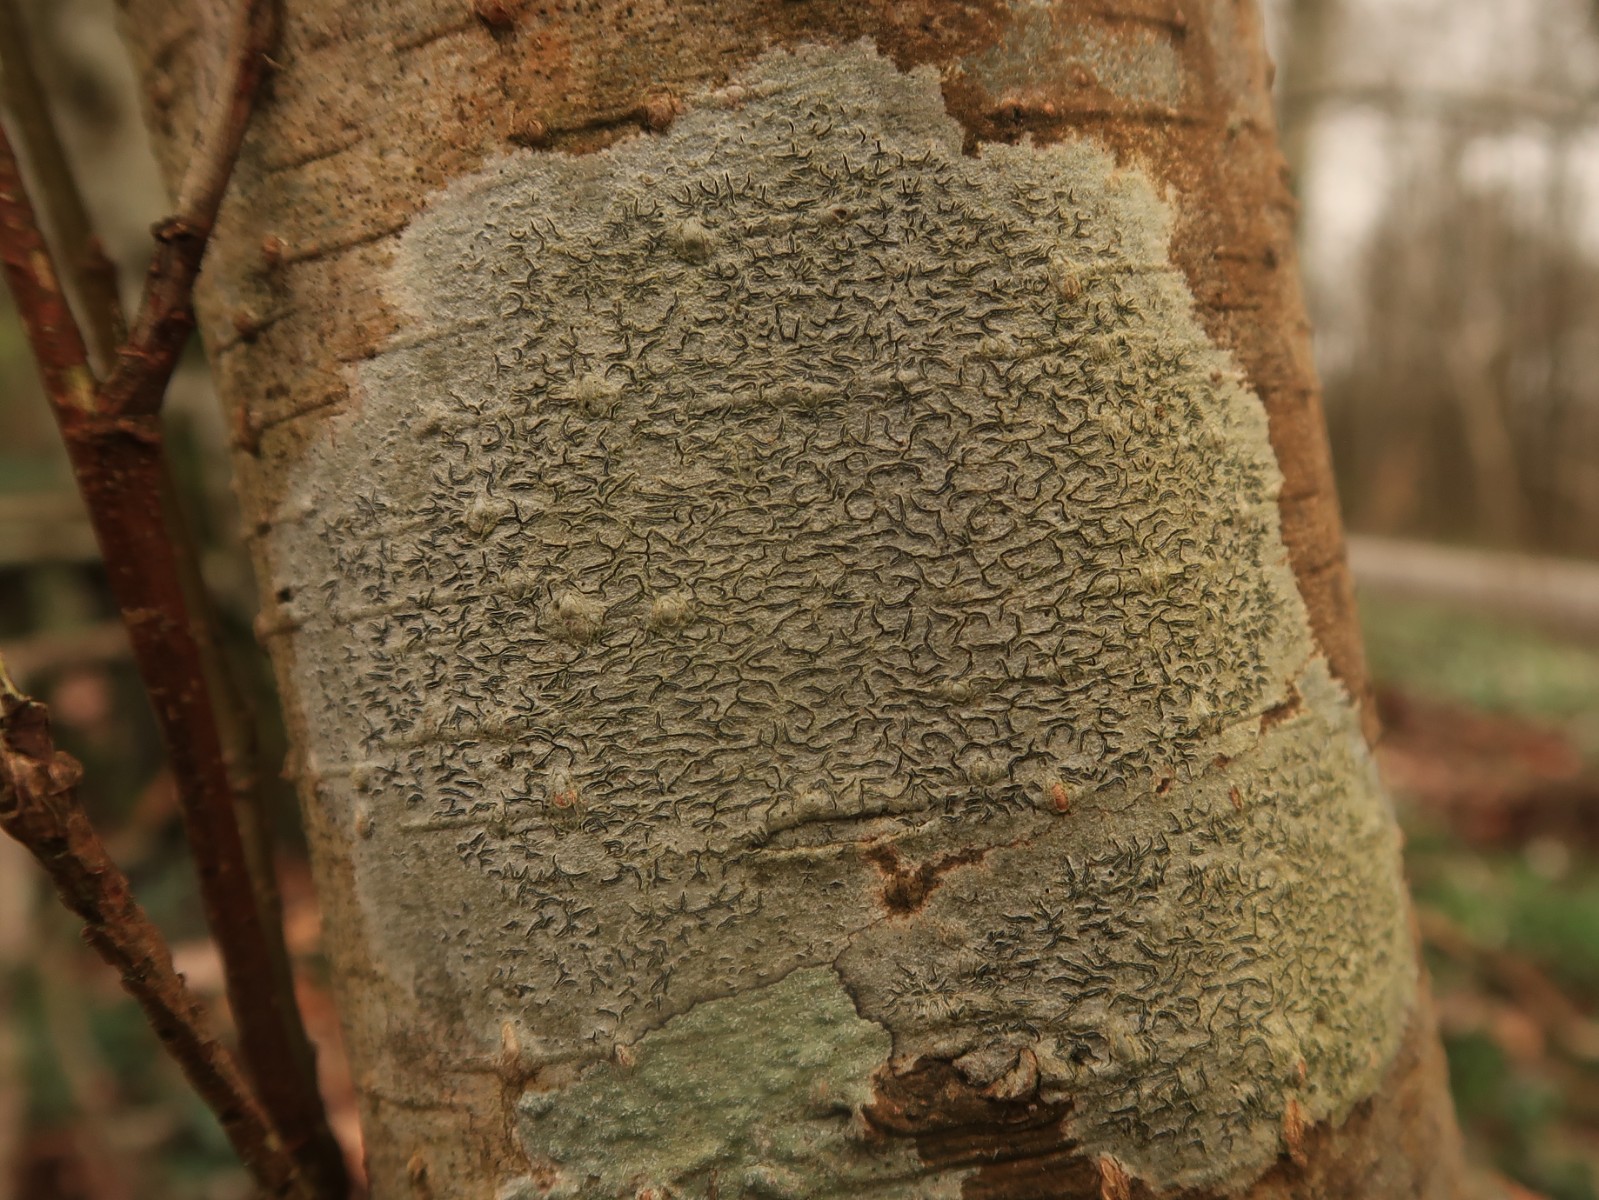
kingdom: Fungi
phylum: Ascomycota
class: Lecanoromycetes
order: Ostropales
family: Graphidaceae
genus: Graphis
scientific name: Graphis scripta
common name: almindelig skriftlav
